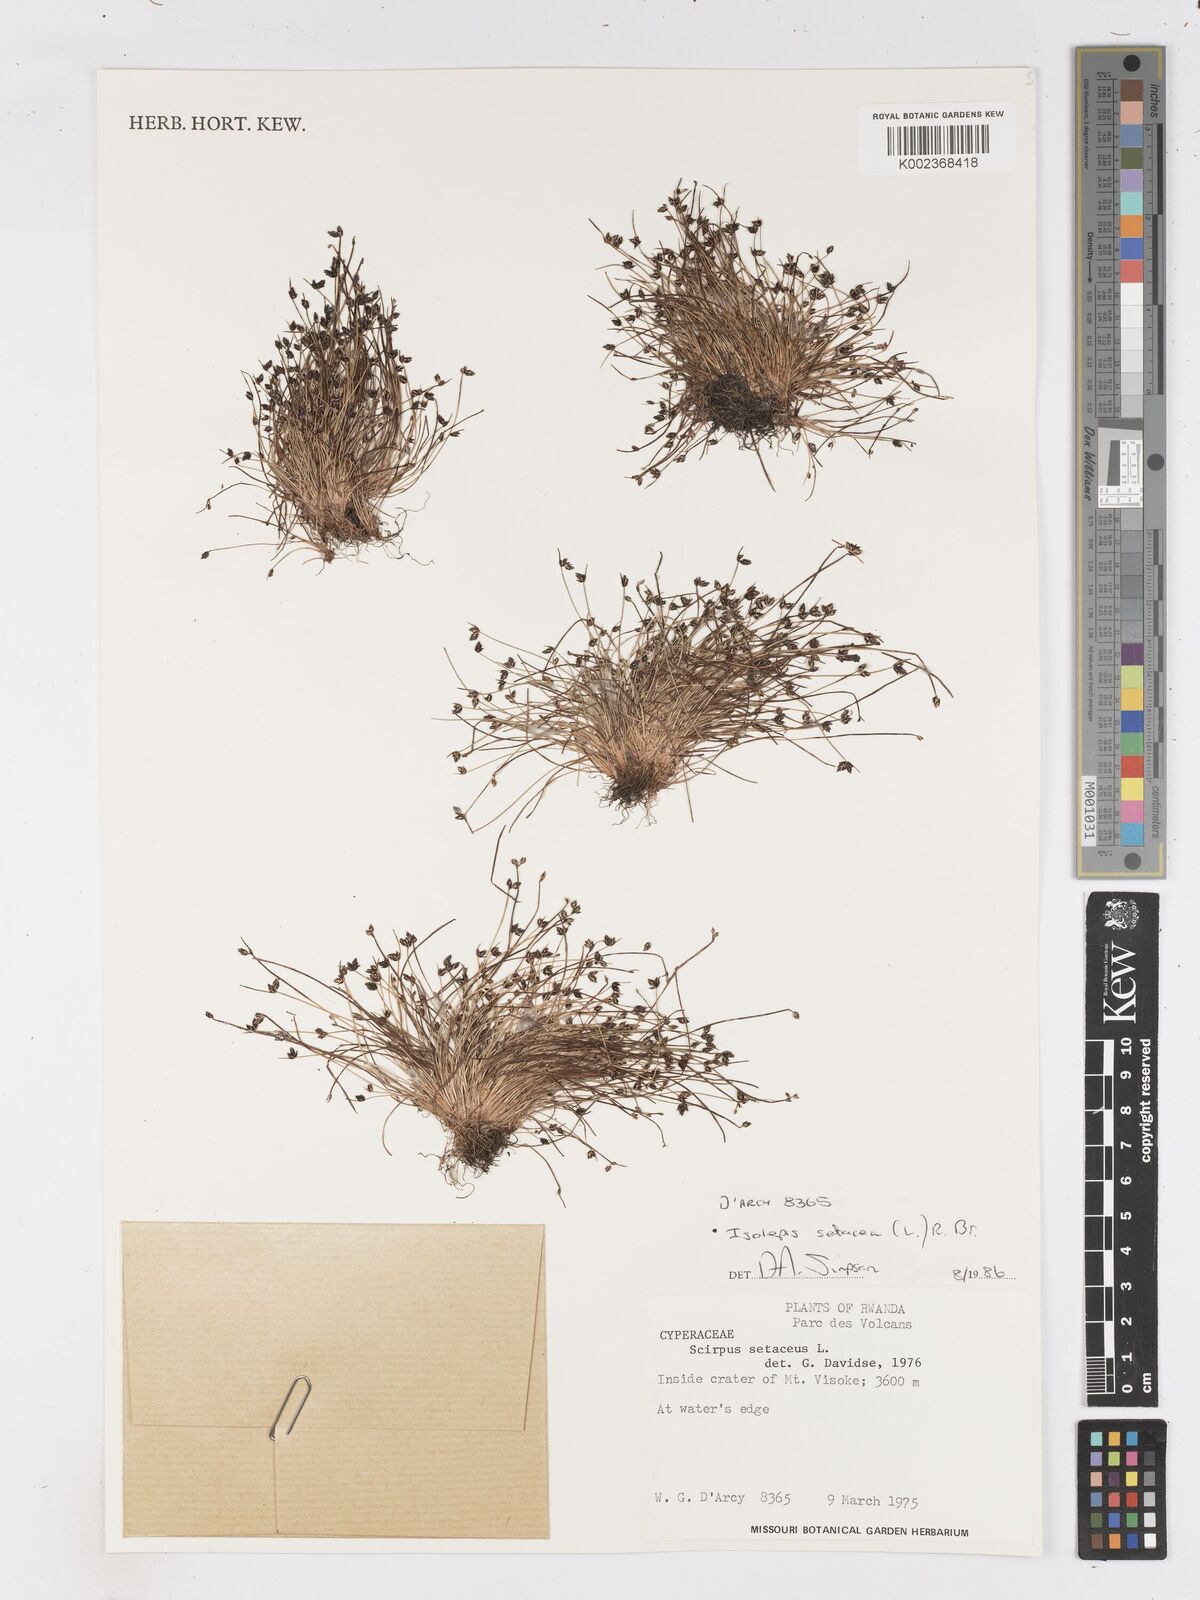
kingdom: Plantae
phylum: Tracheophyta
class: Liliopsida
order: Poales
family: Cyperaceae
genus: Isolepis
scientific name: Isolepis setacea
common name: Bristle club-rush
